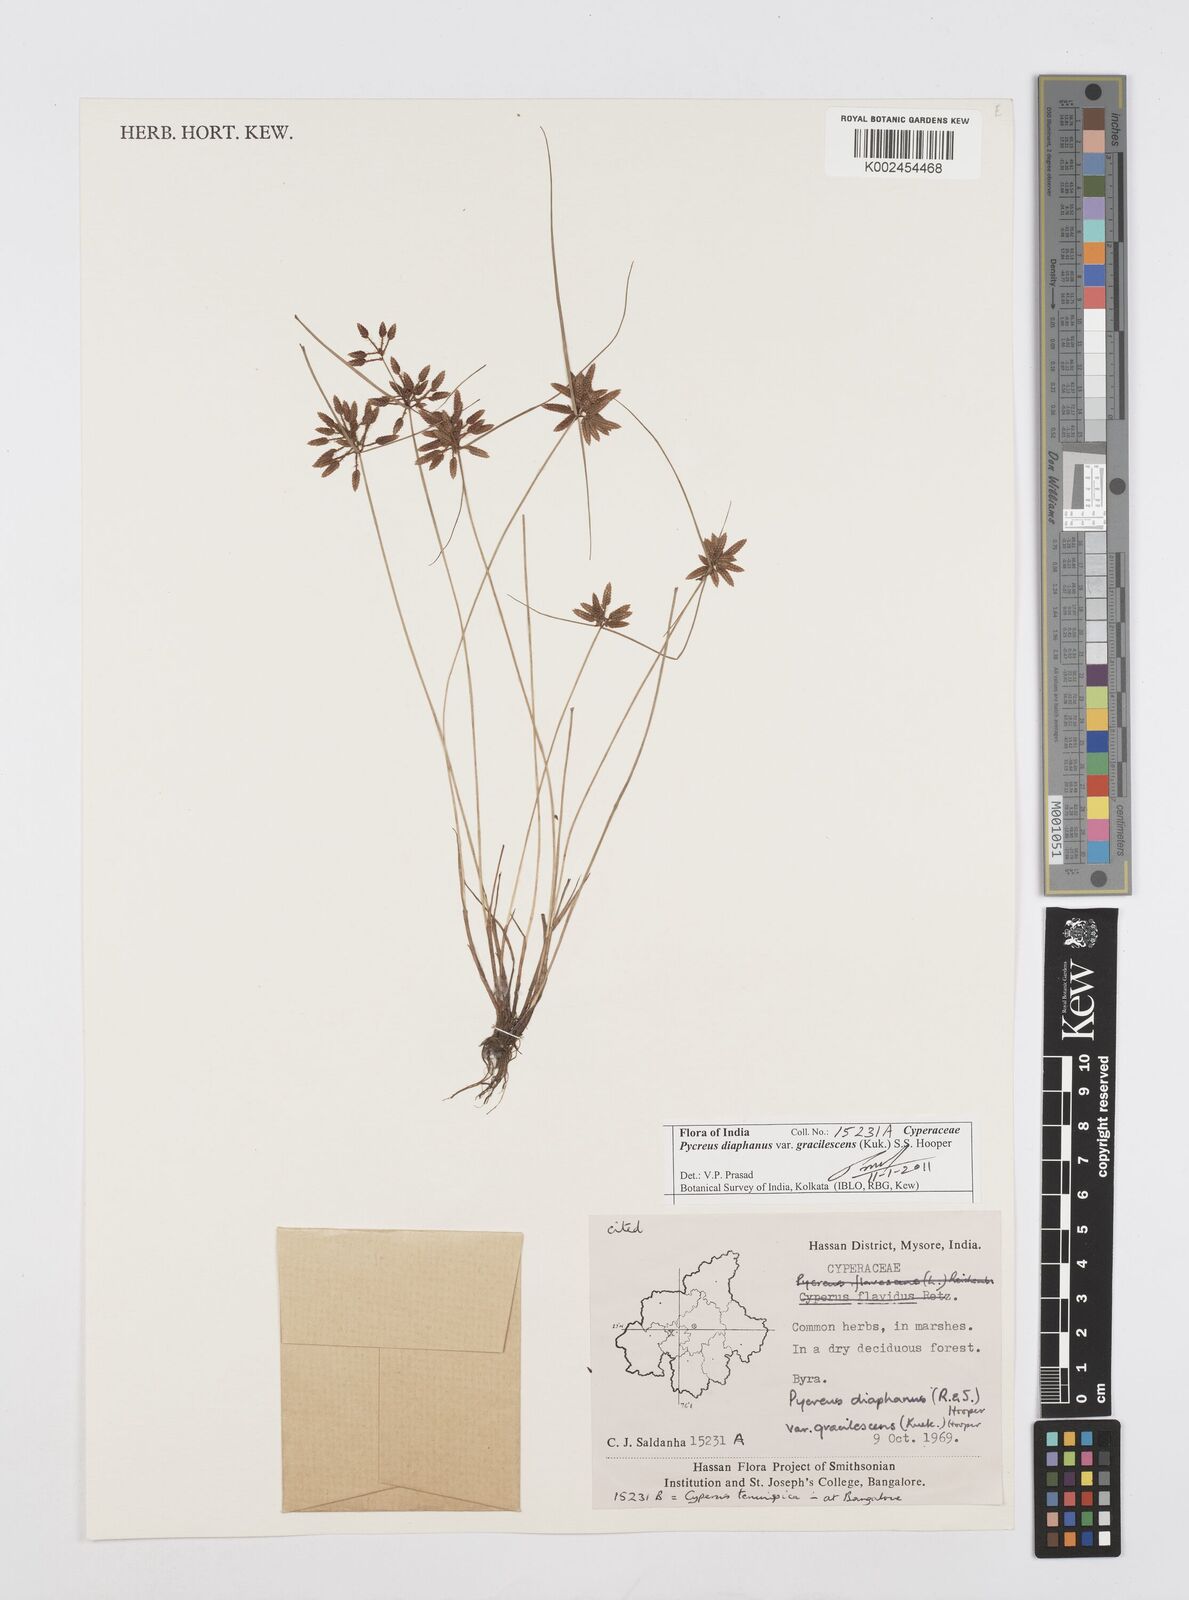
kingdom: Plantae
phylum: Tracheophyta
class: Liliopsida
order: Poales
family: Cyperaceae
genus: Cyperus
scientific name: Cyperus diaphanus
